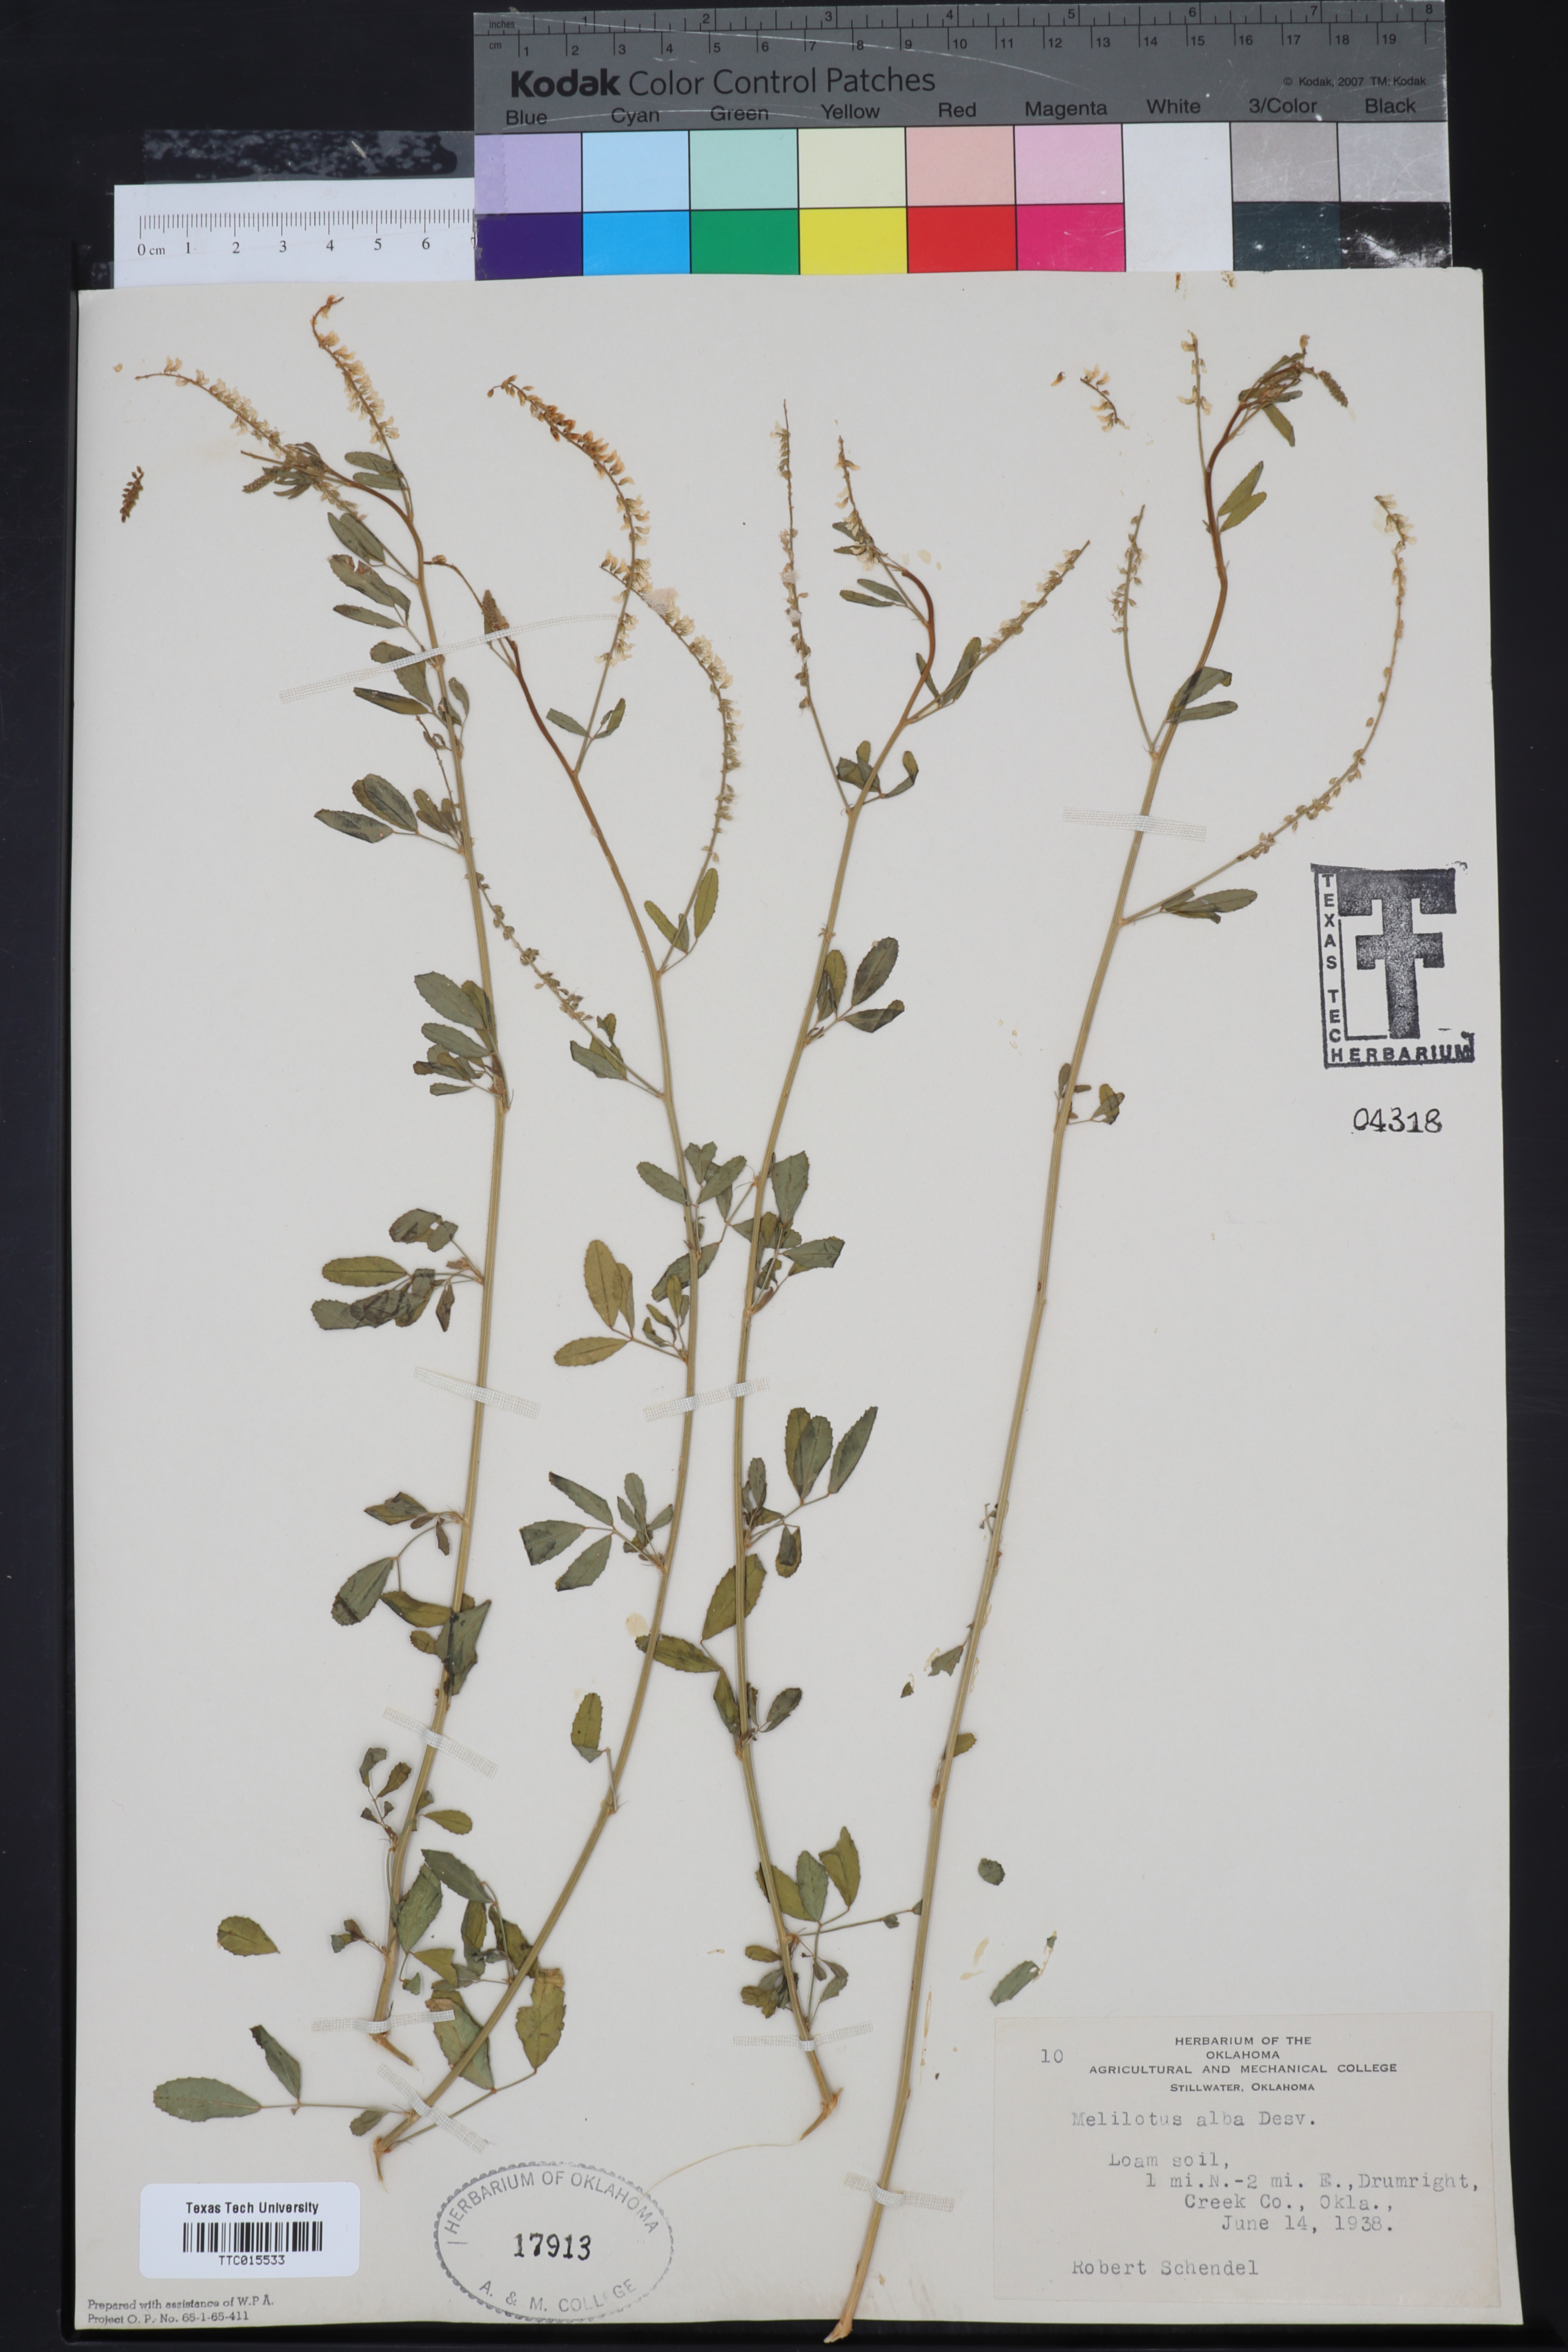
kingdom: Plantae
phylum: Tracheophyta
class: Magnoliopsida
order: Fabales
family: Fabaceae
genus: Melilotus
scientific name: Melilotus albus
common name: White melilot
